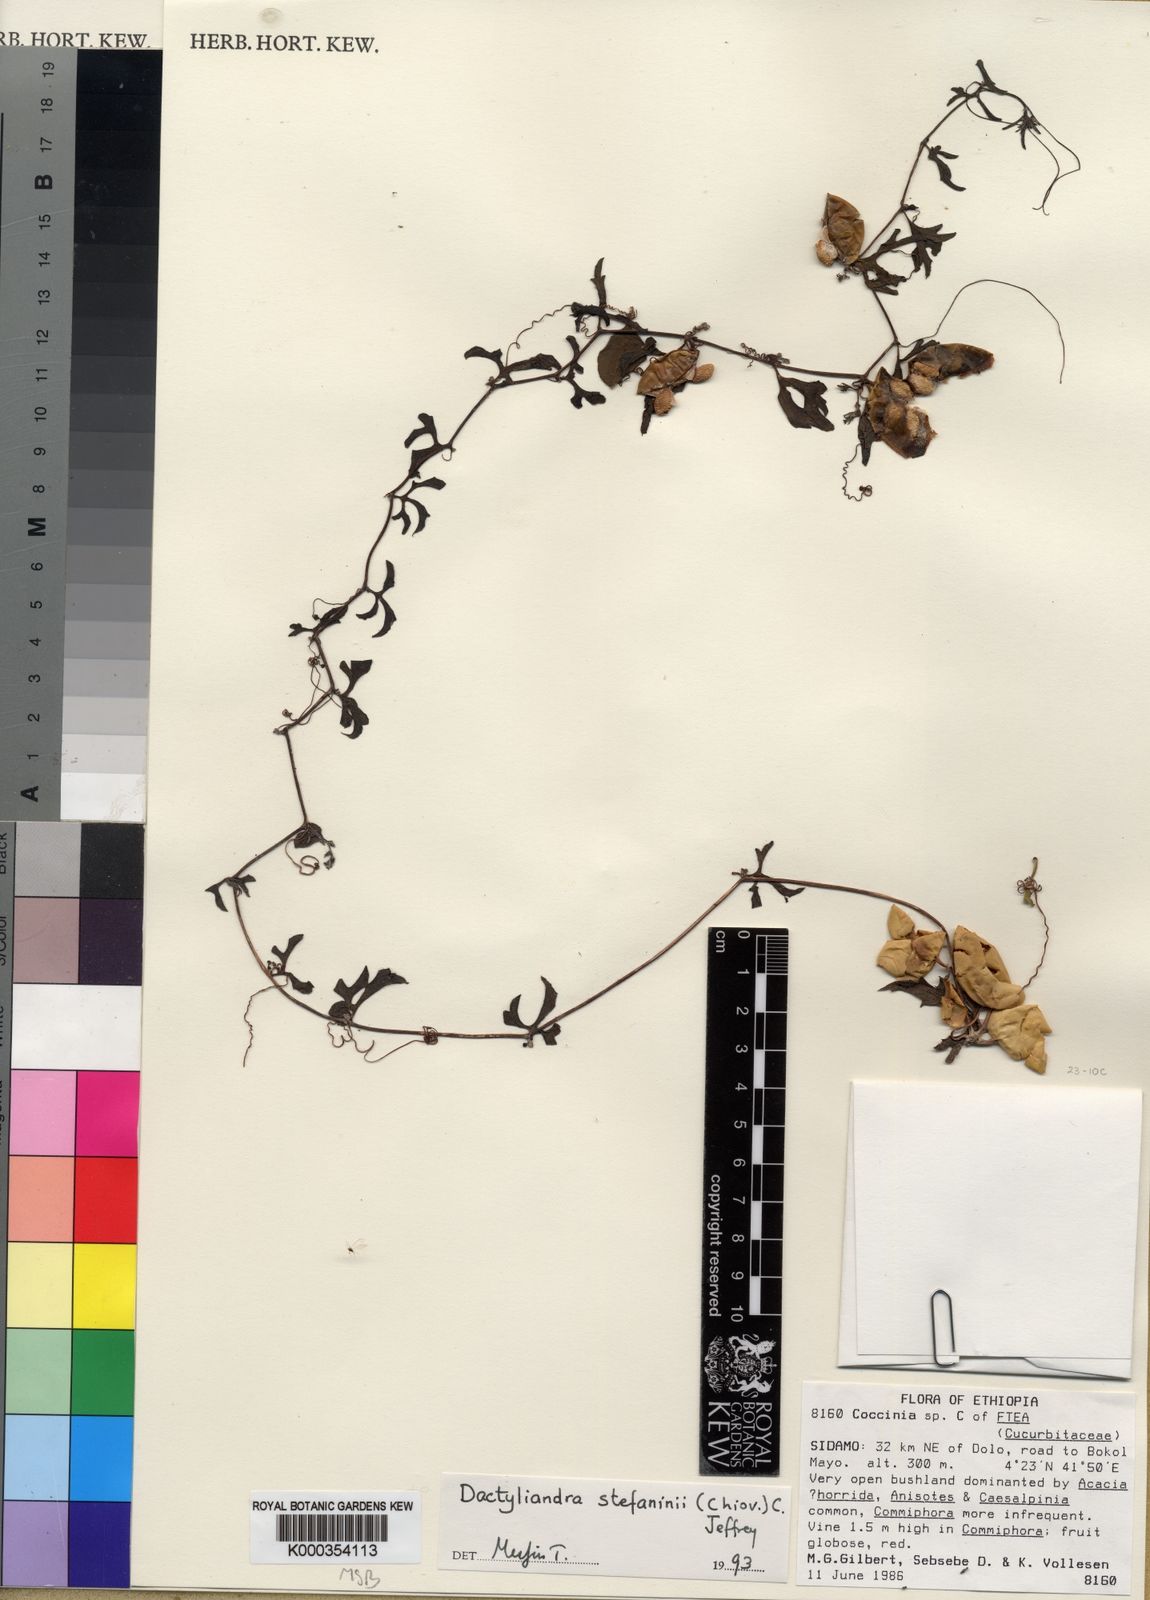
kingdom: Plantae
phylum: Tracheophyta
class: Magnoliopsida
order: Cucurbitales
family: Cucurbitaceae
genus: Dactyliandra
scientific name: Dactyliandra stefaninii
